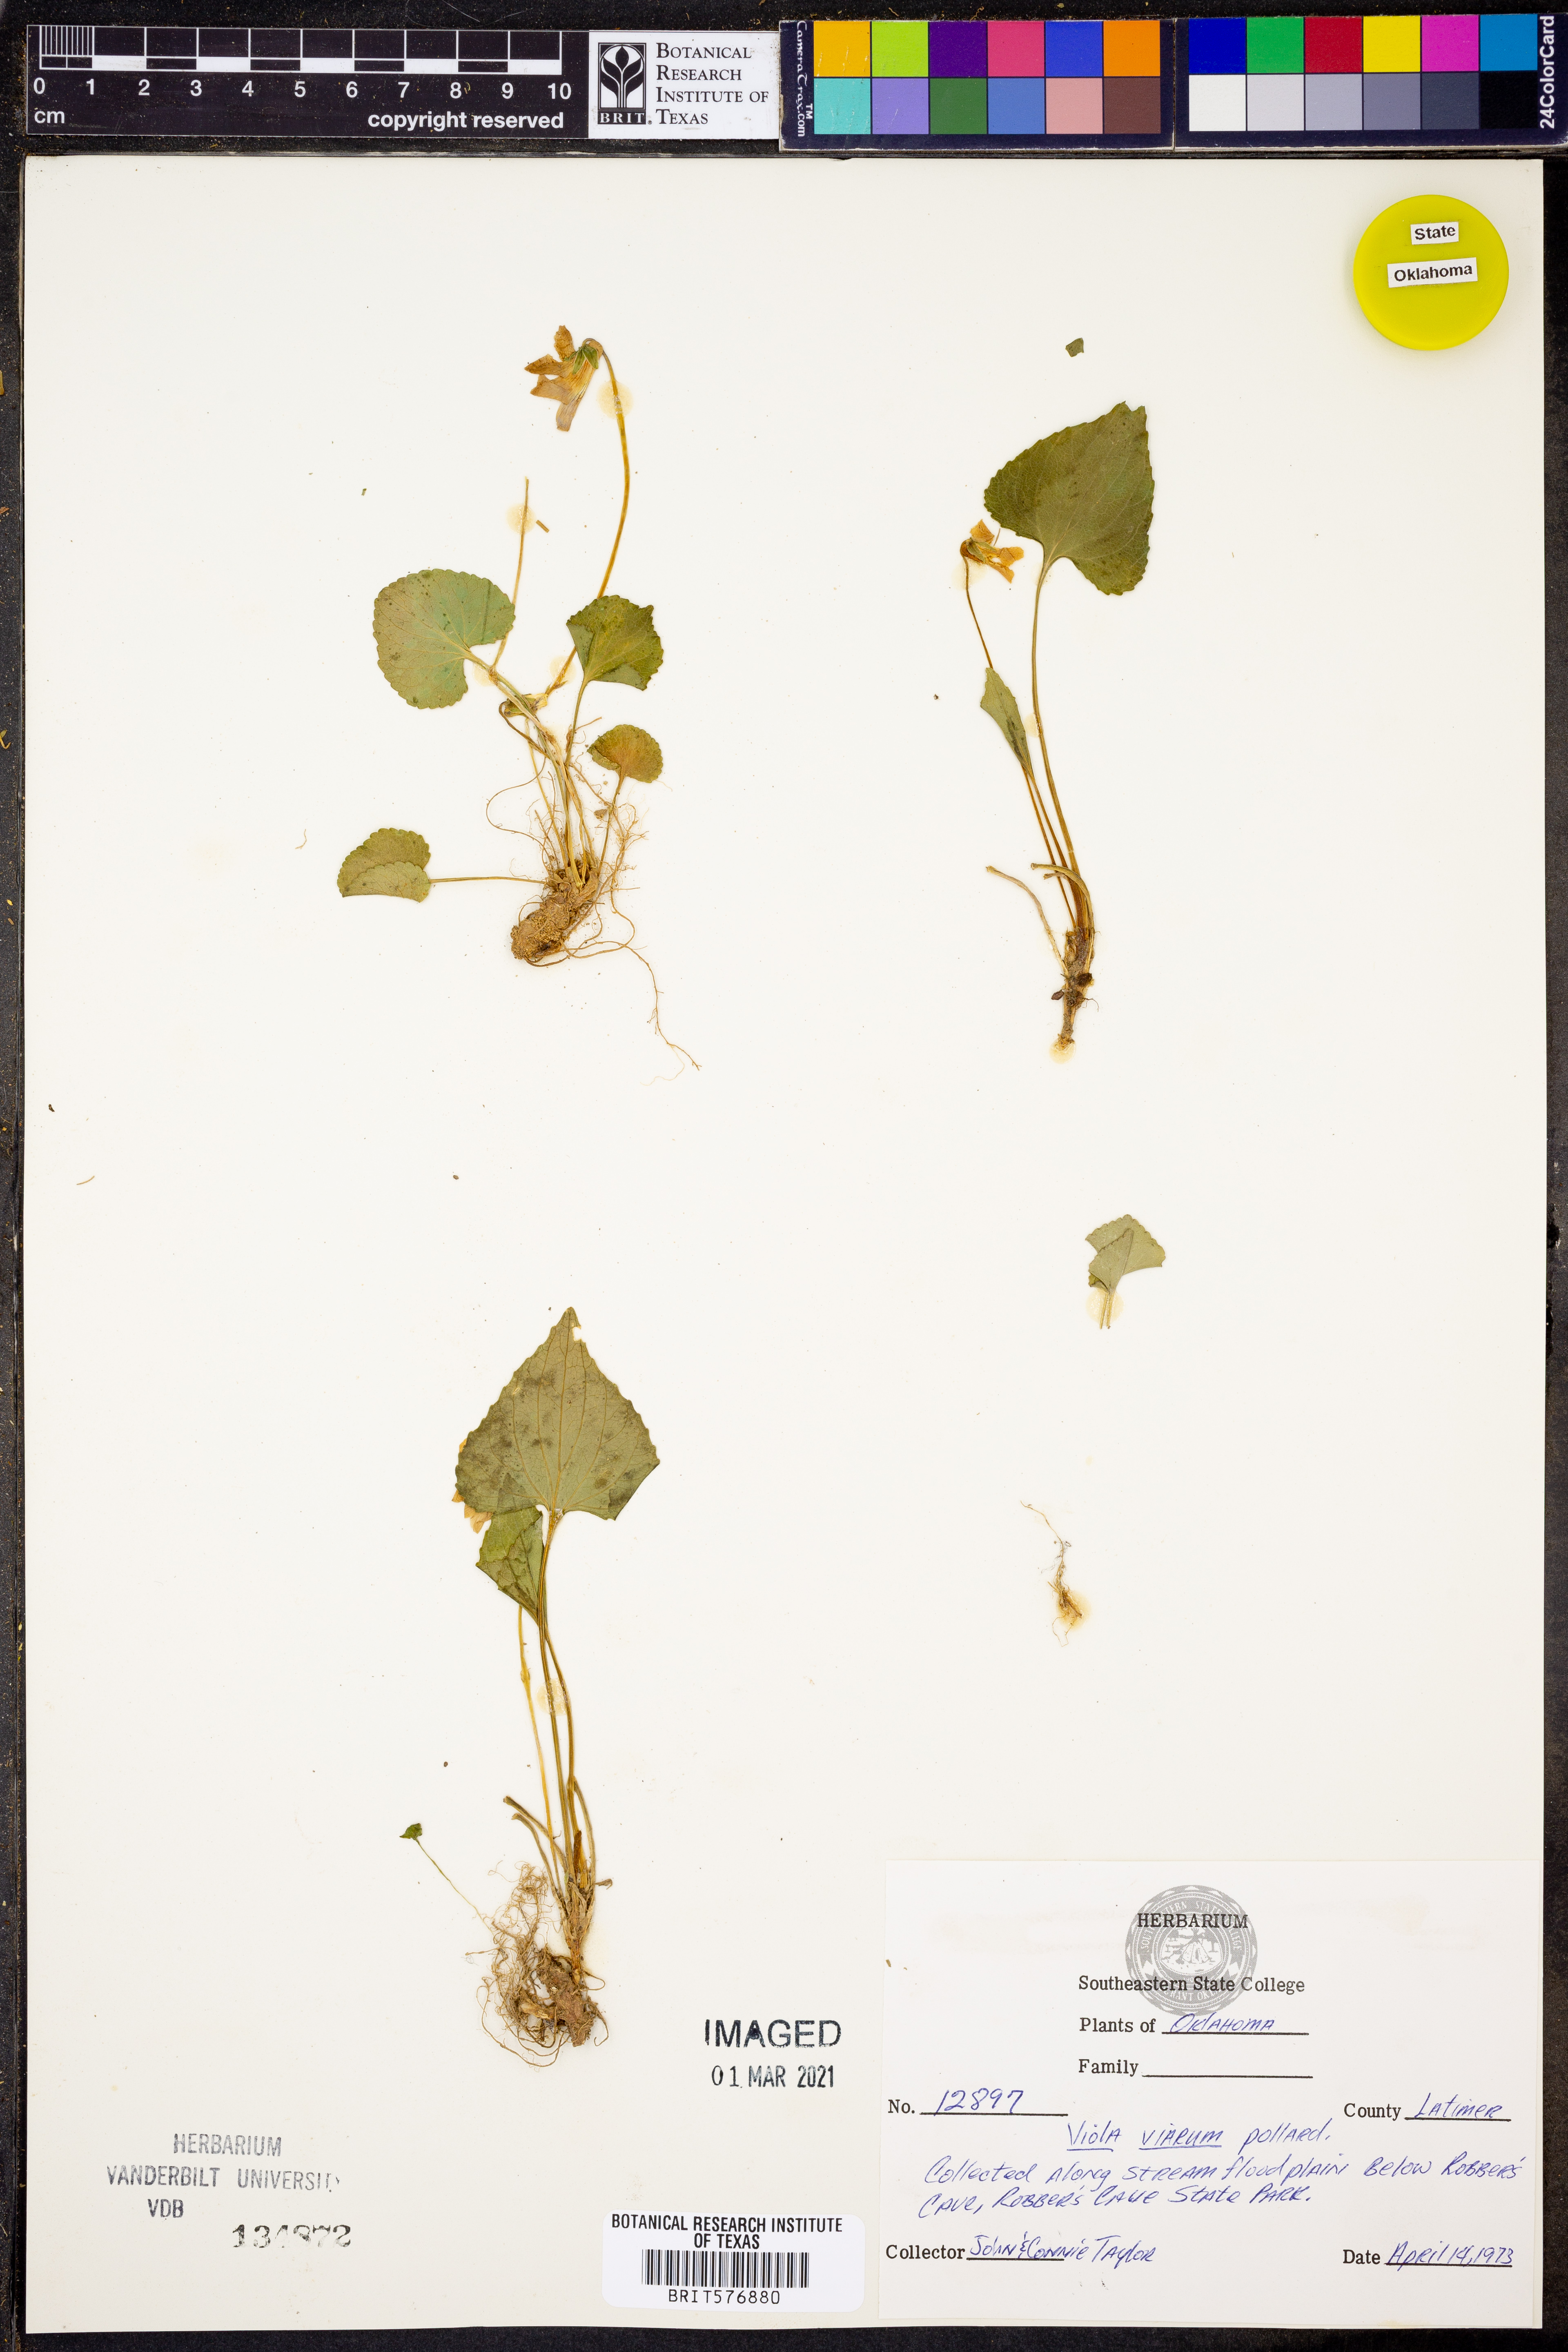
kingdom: Plantae
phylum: Tracheophyta
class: Magnoliopsida
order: Malpighiales
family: Violaceae
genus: Viola
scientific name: Viola viarum
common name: Twoflower violet
